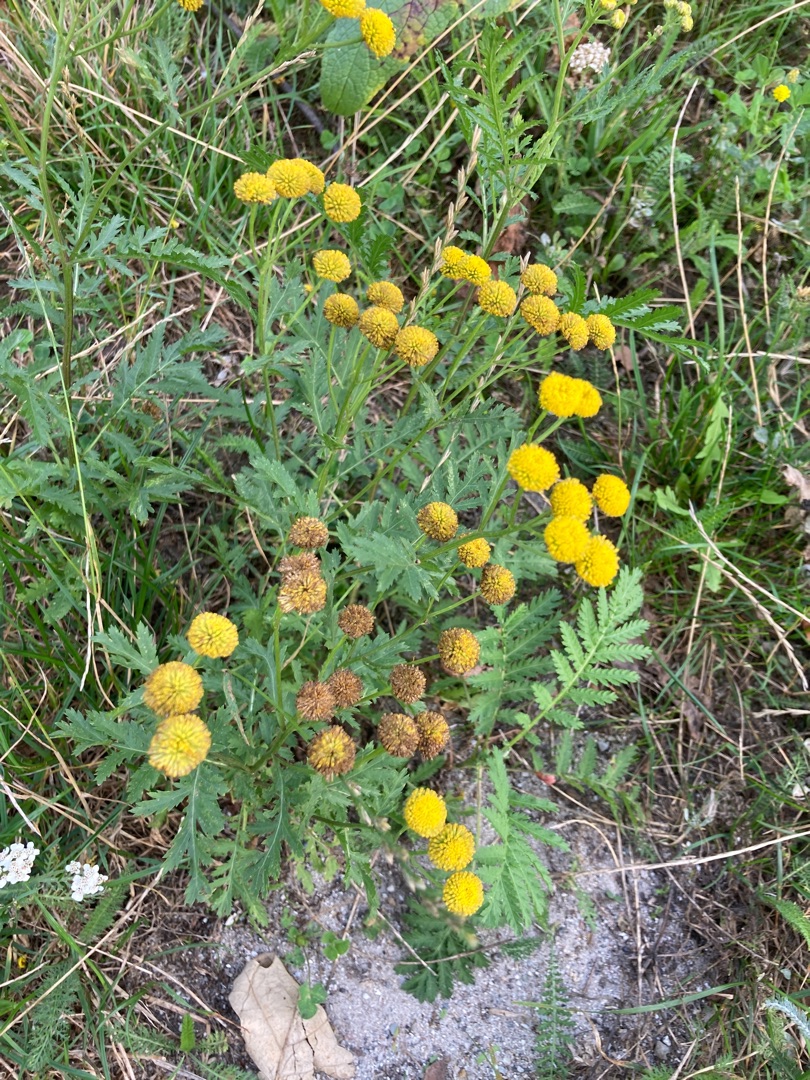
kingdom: Plantae
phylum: Tracheophyta
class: Magnoliopsida
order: Asterales
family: Asteraceae
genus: Tanacetum
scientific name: Tanacetum vulgare
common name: Rejnfan
